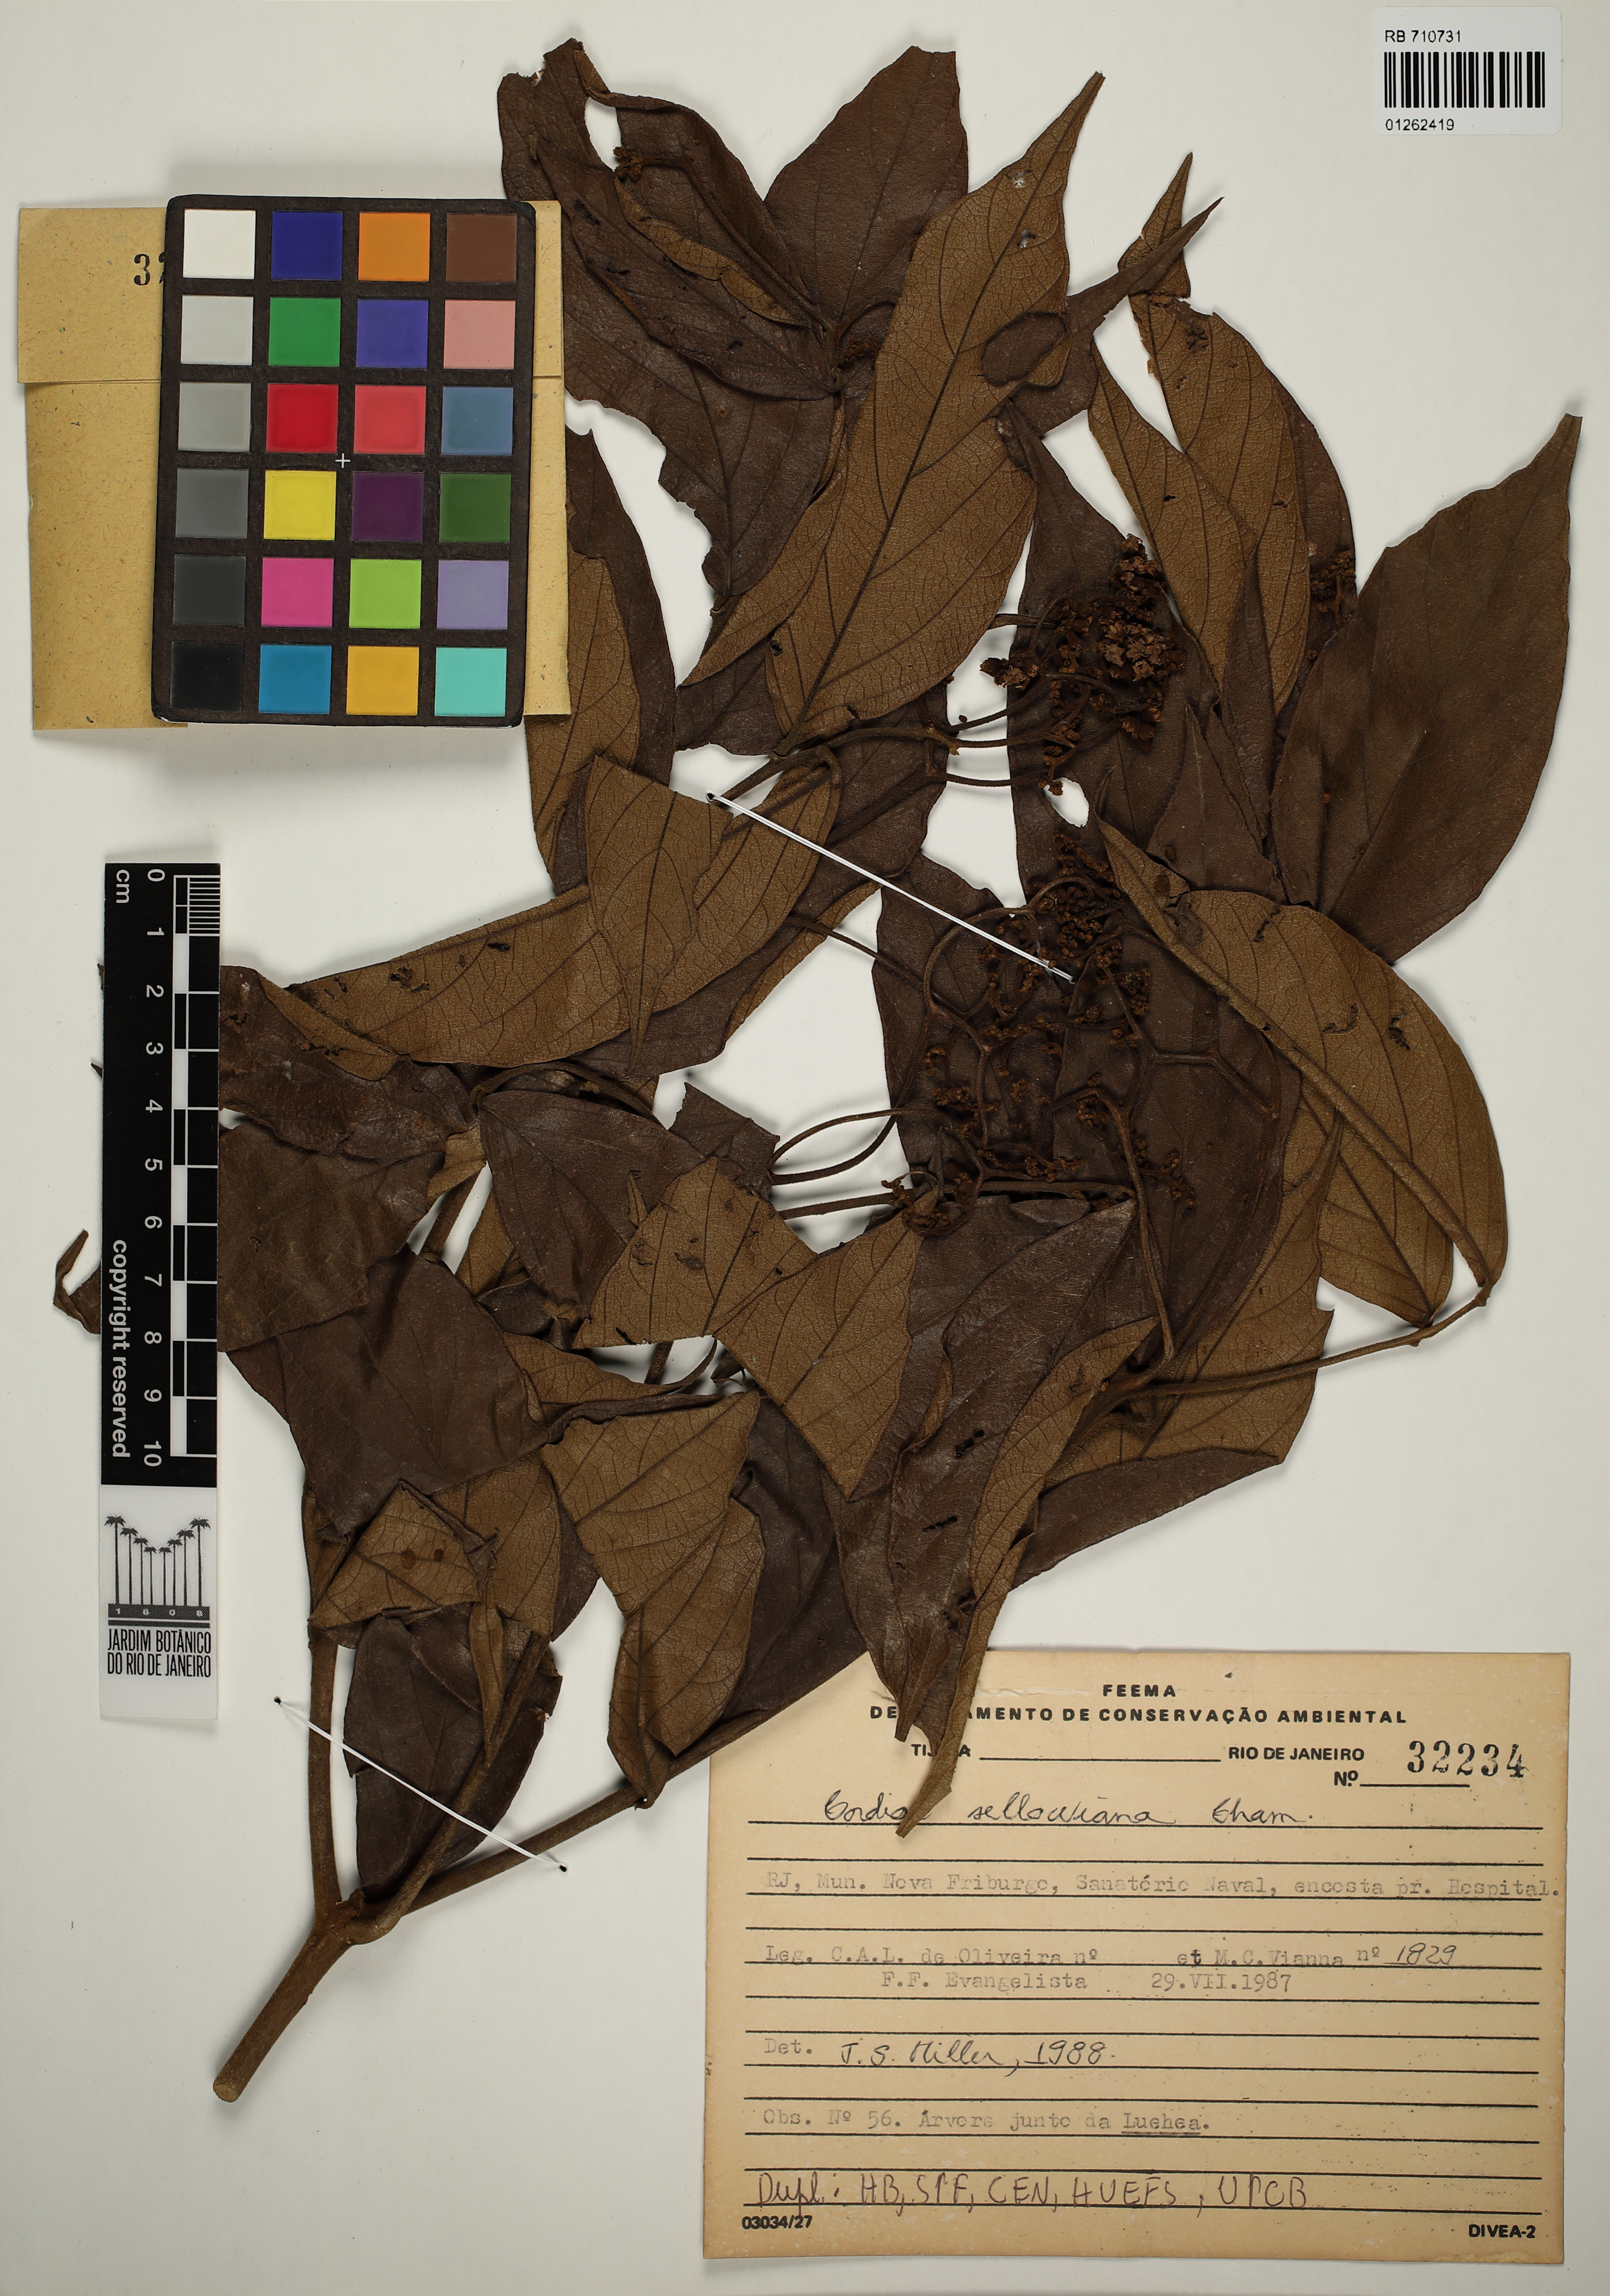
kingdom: Plantae
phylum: Tracheophyta
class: Magnoliopsida
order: Boraginales
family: Cordiaceae
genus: Cordia
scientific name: Cordia sellowiana
